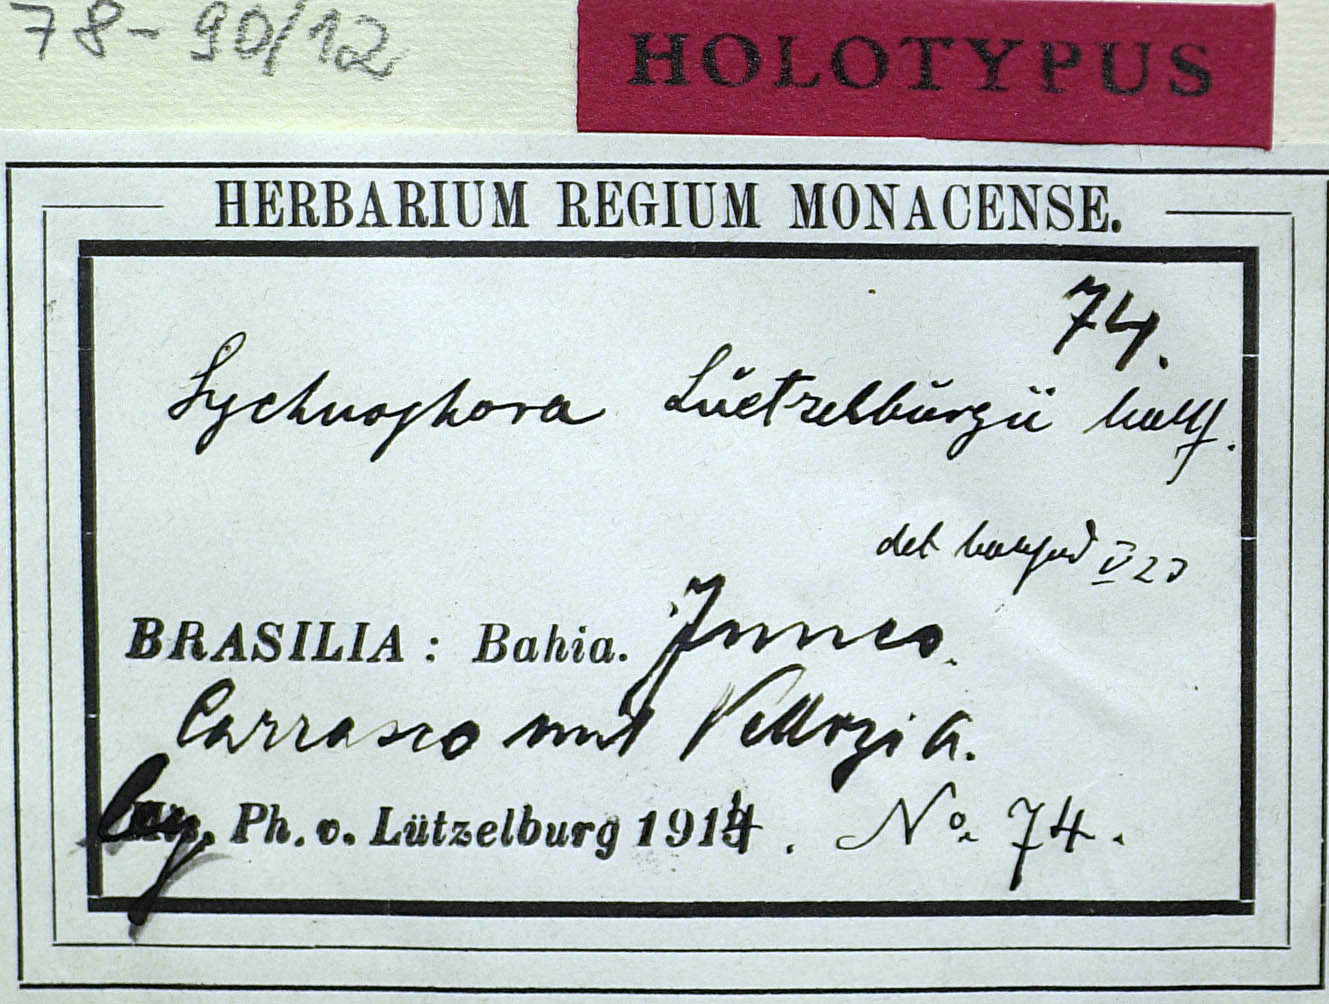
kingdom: Plantae
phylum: Tracheophyta
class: Magnoliopsida
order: Asterales
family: Asteraceae
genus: Lychnophora
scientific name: Lychnophora salicifolia
